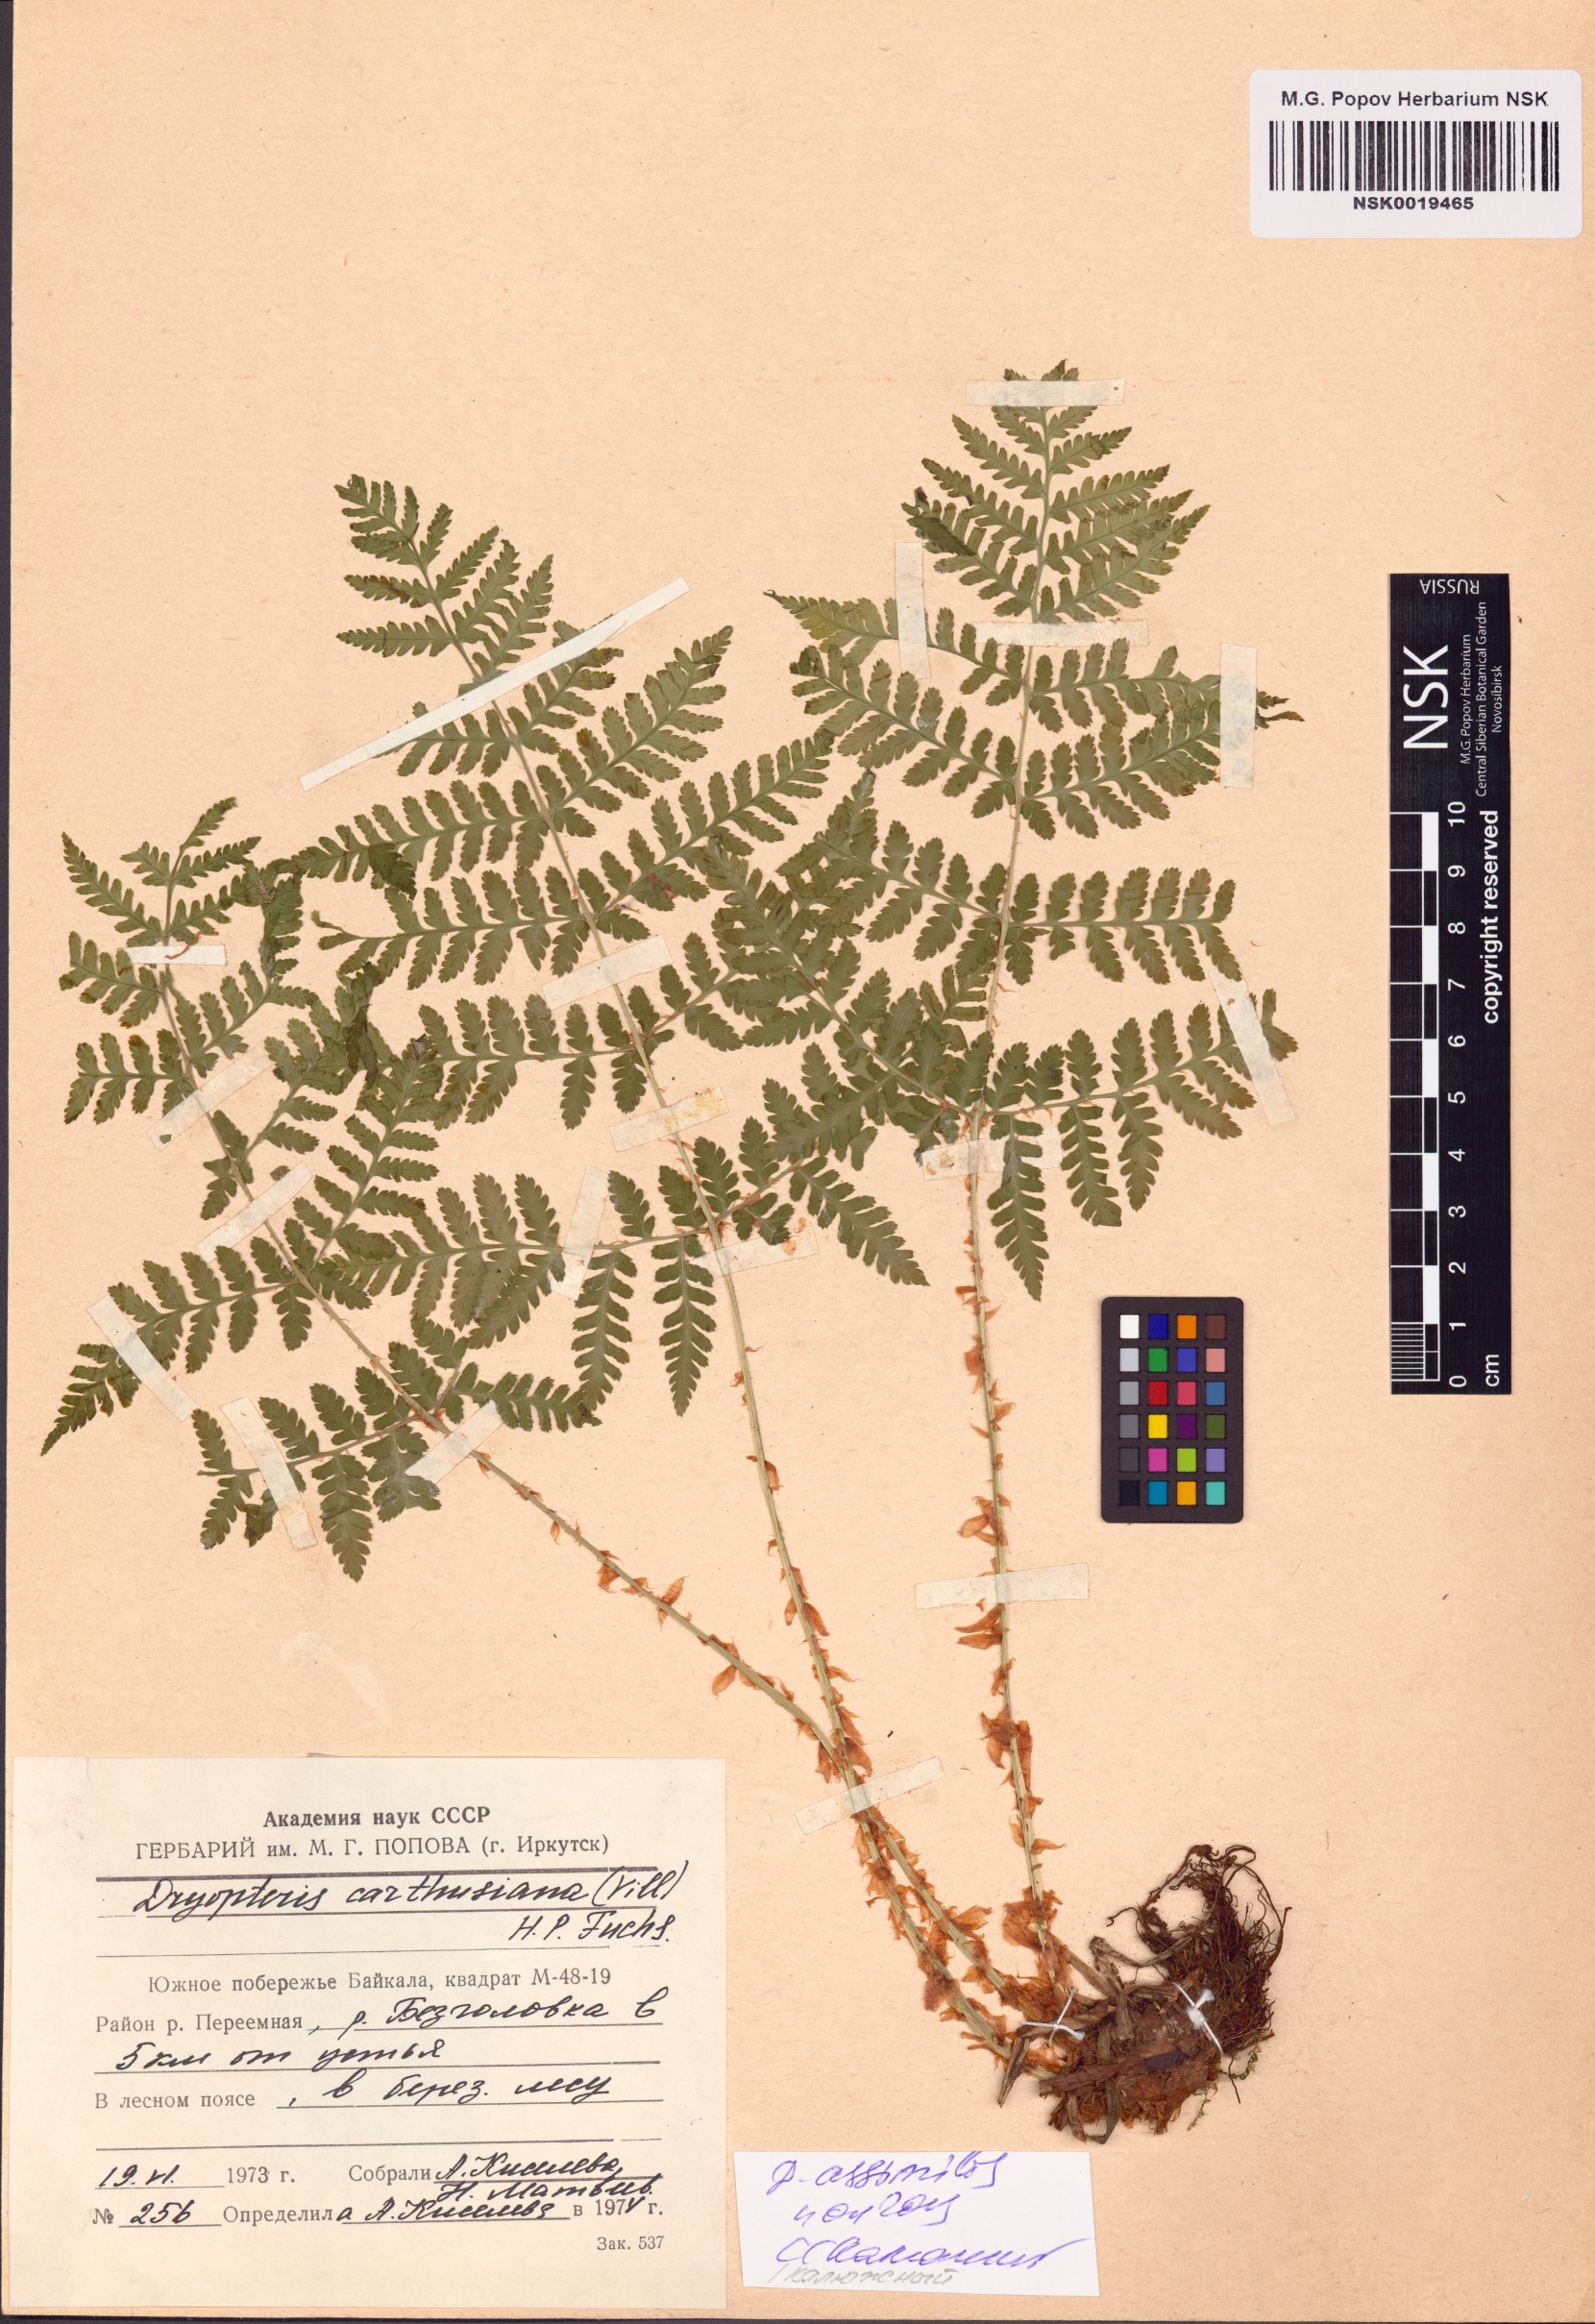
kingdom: Plantae
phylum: Tracheophyta
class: Polypodiopsida
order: Polypodiales
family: Dryopteridaceae
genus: Dryopteris
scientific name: Dryopteris expansa
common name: Northern buckler fern
